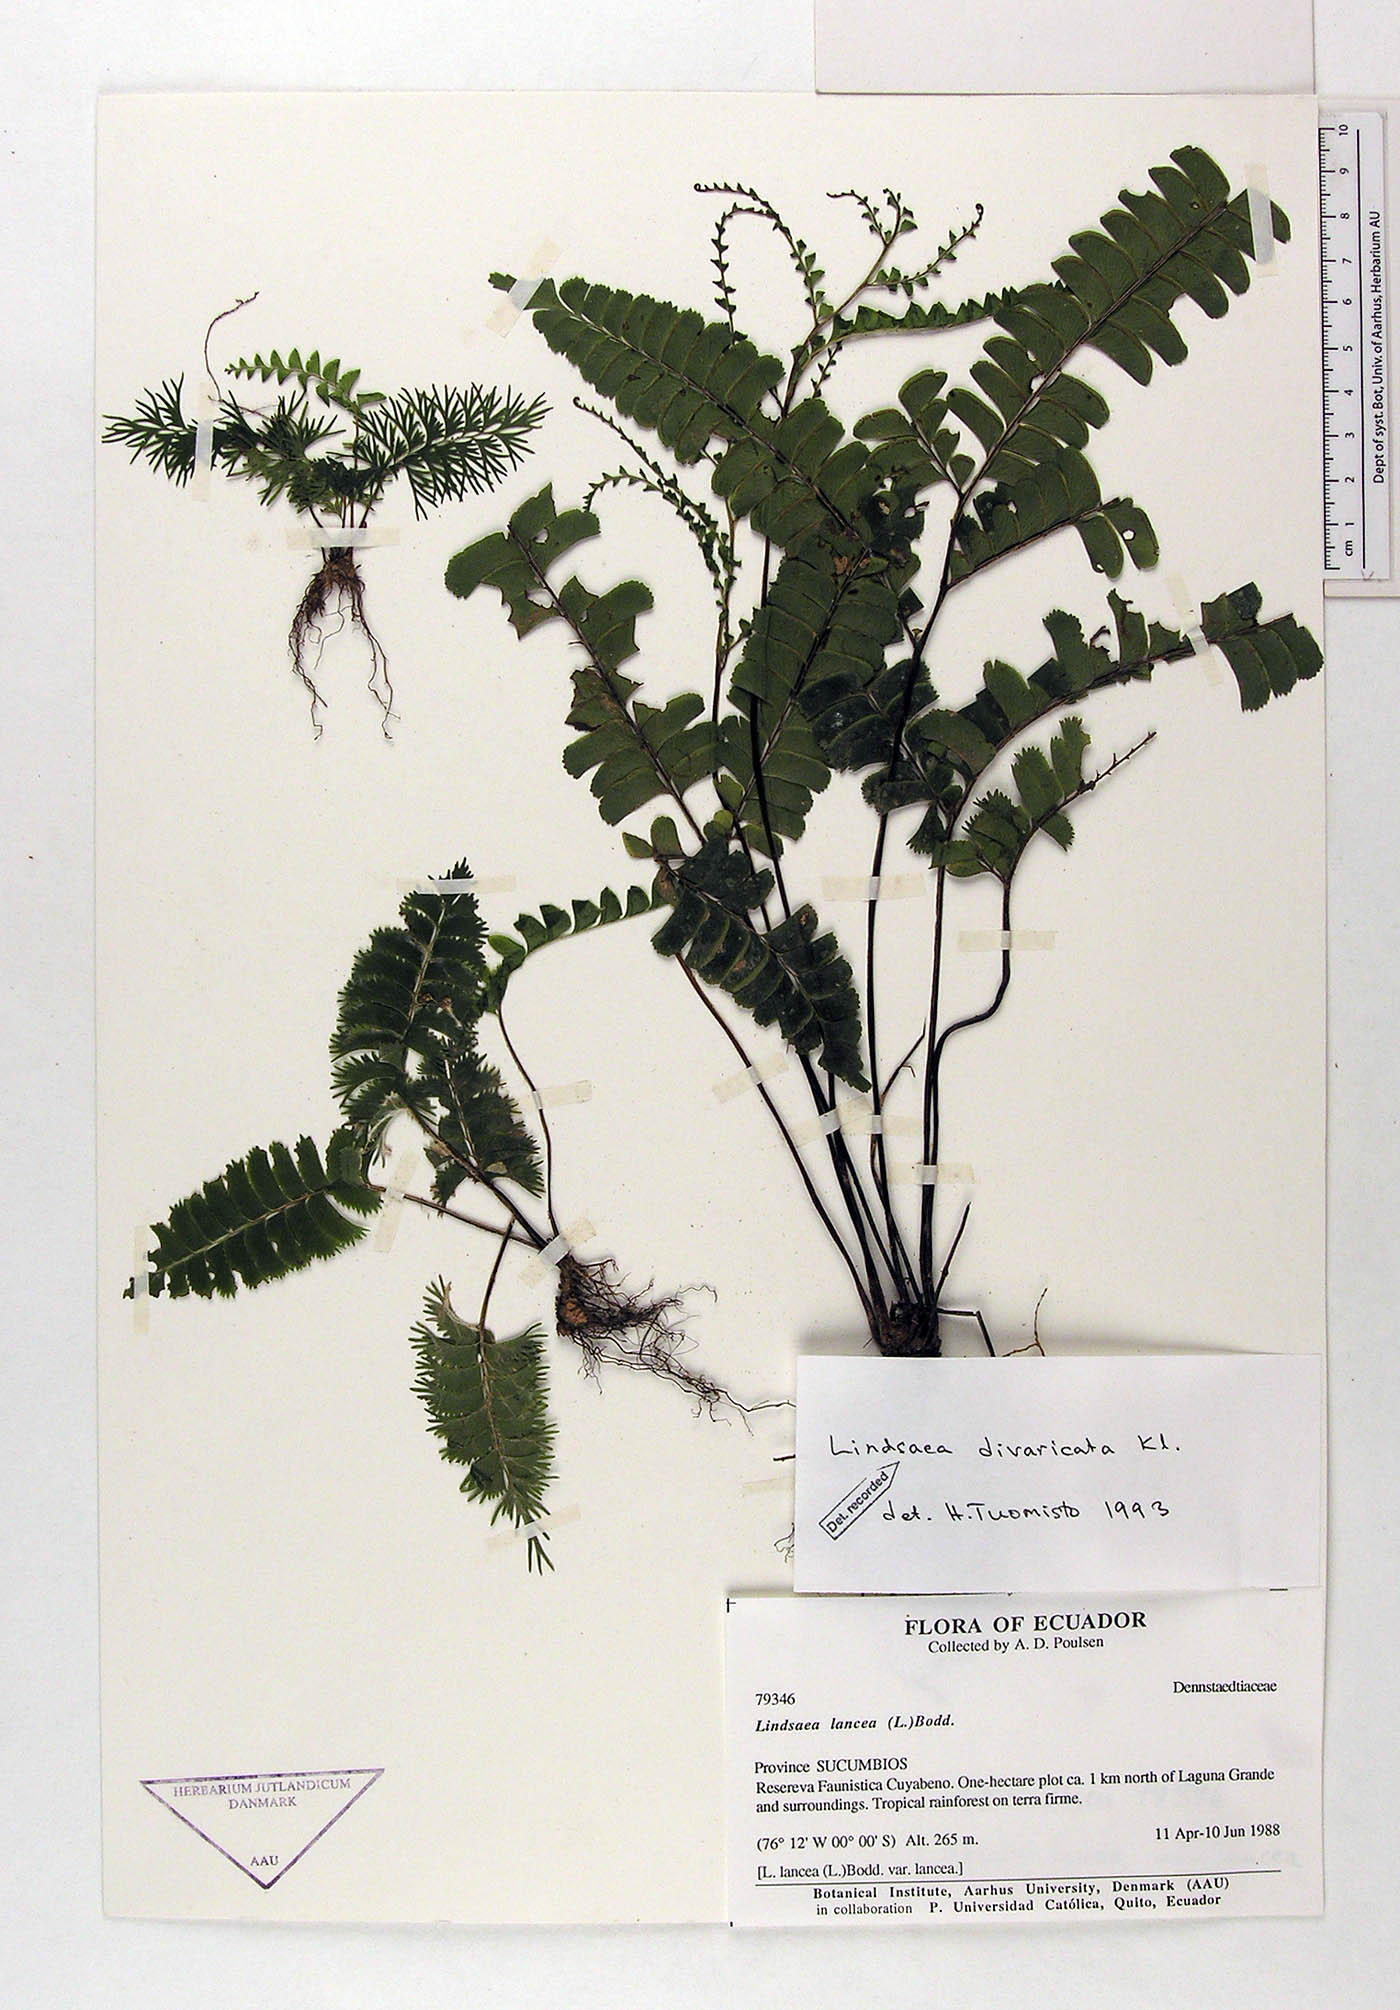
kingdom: Plantae
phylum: Tracheophyta
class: Polypodiopsida
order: Polypodiales
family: Lindsaeaceae
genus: Lindsaea
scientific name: Lindsaea divaricata
